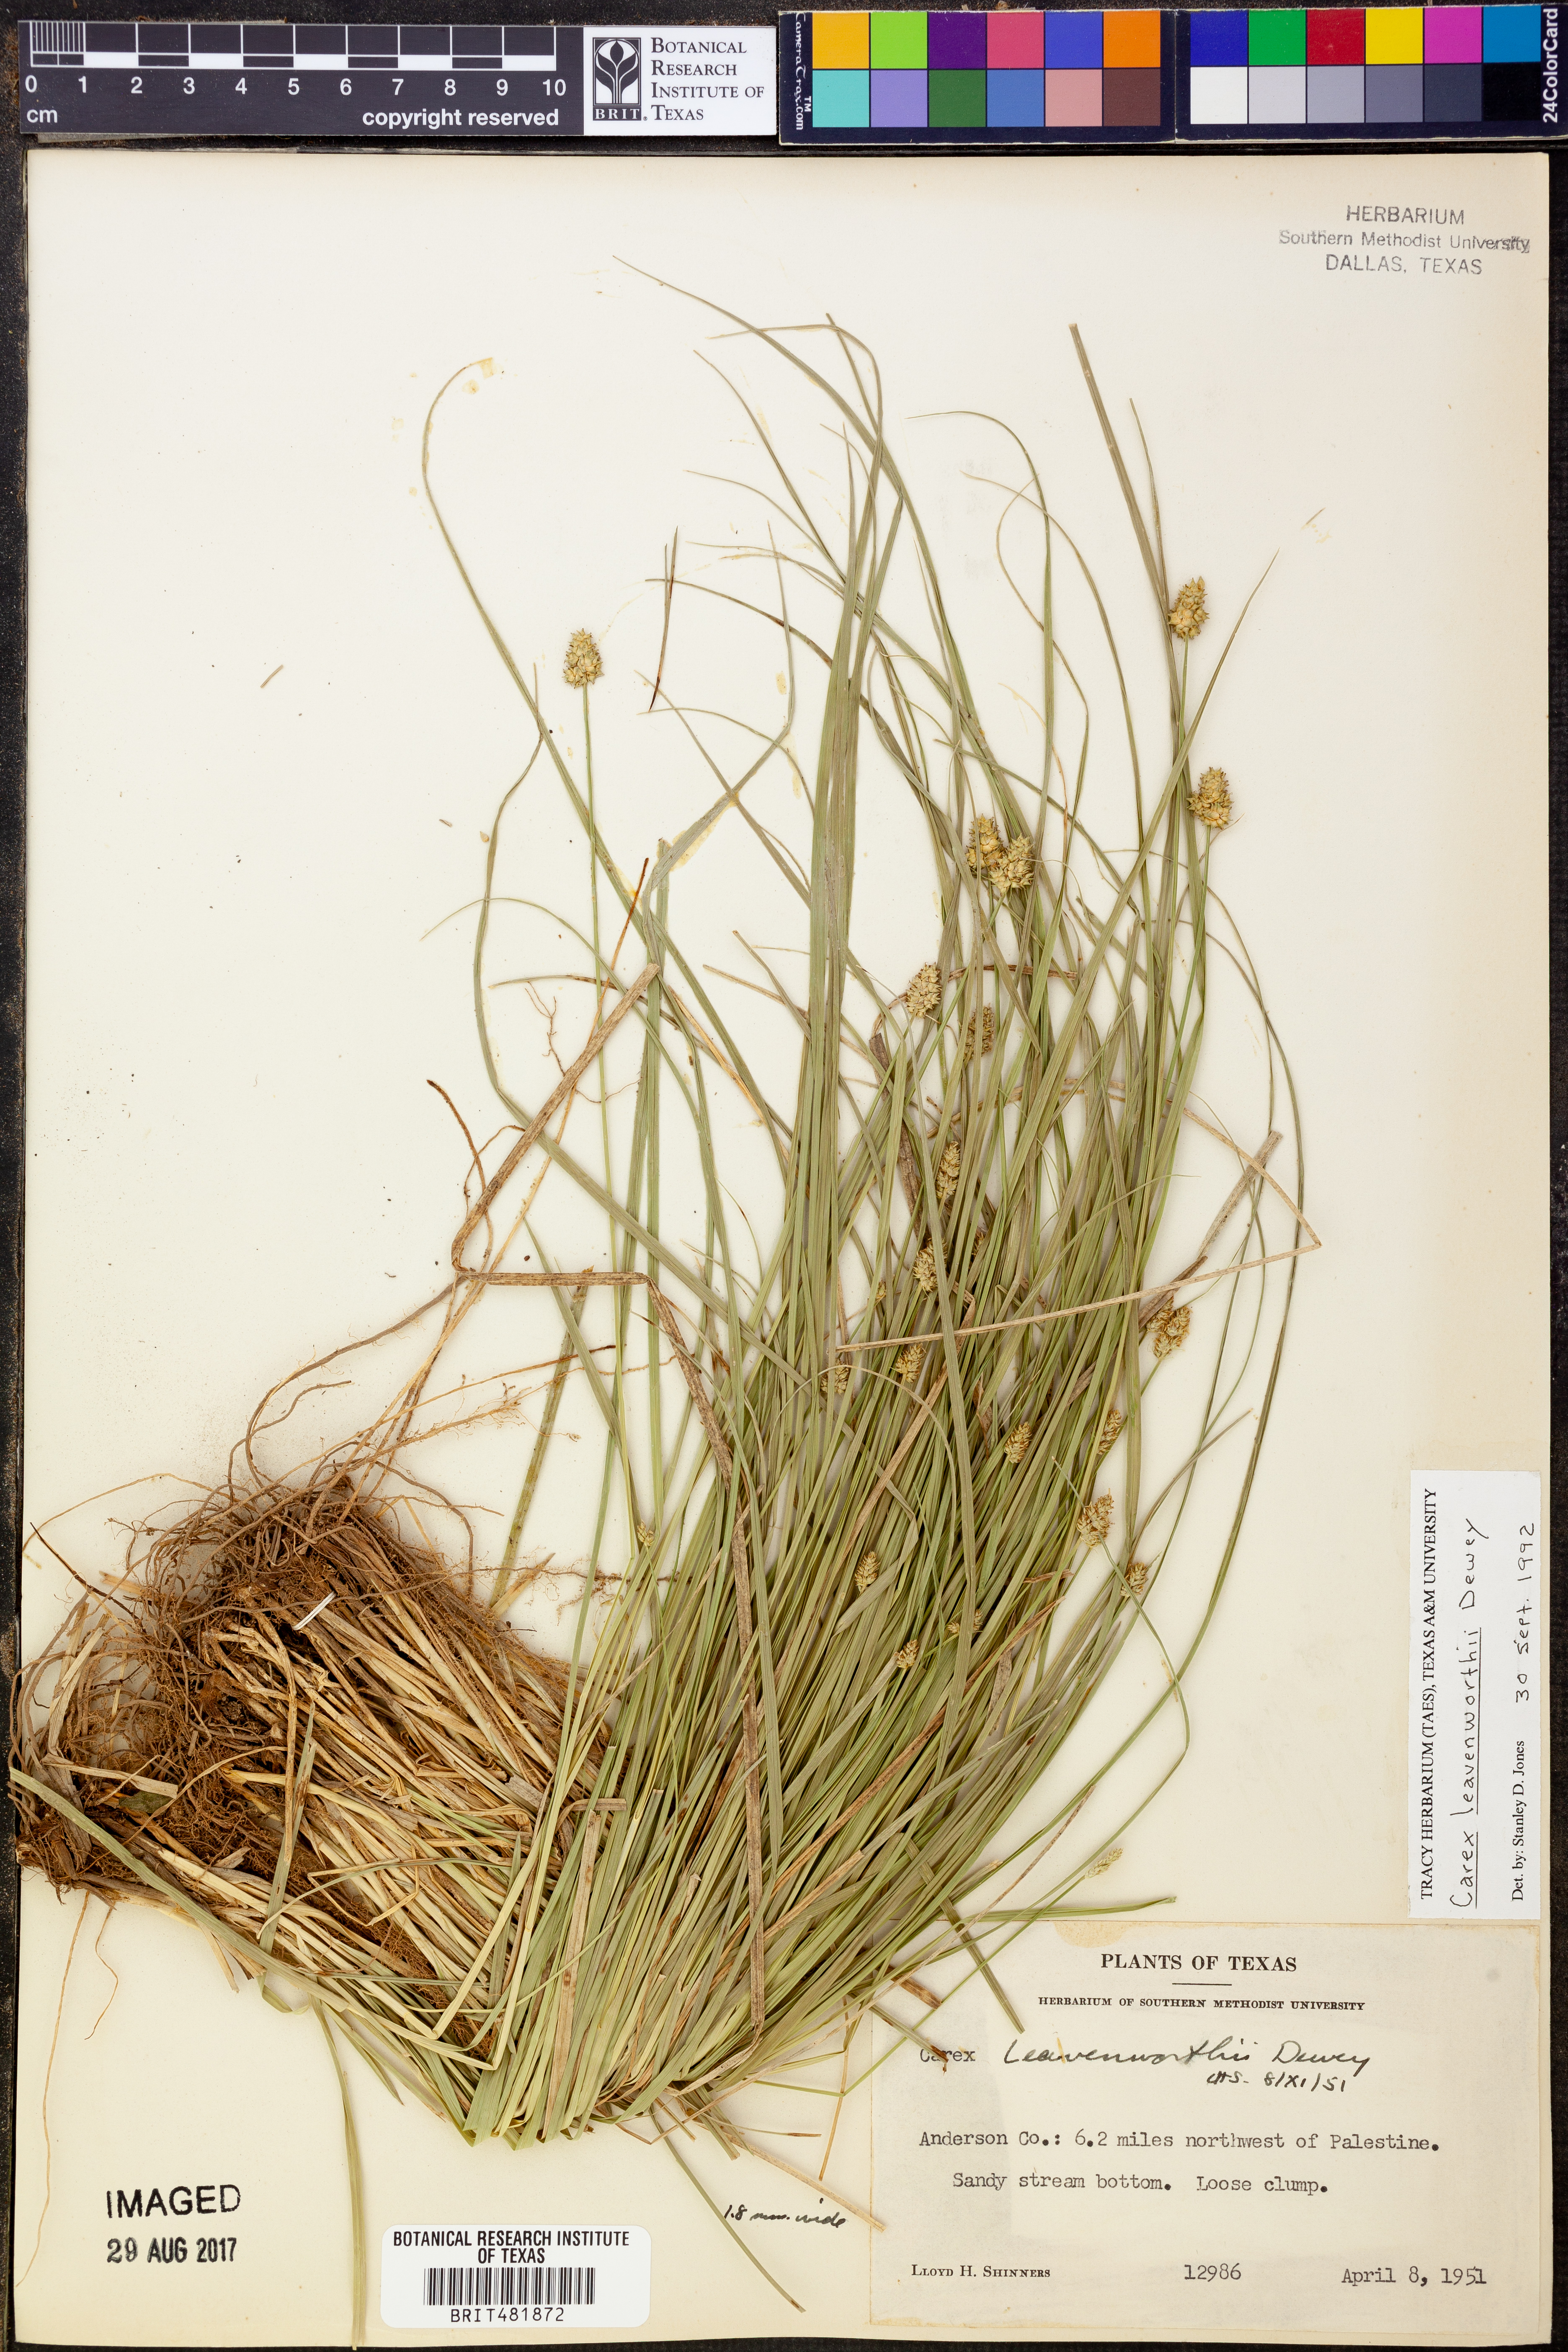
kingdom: Plantae
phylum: Tracheophyta
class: Liliopsida
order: Poales
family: Cyperaceae
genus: Carex
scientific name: Carex leavenworthii
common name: Leavenworth's bracted sedge
